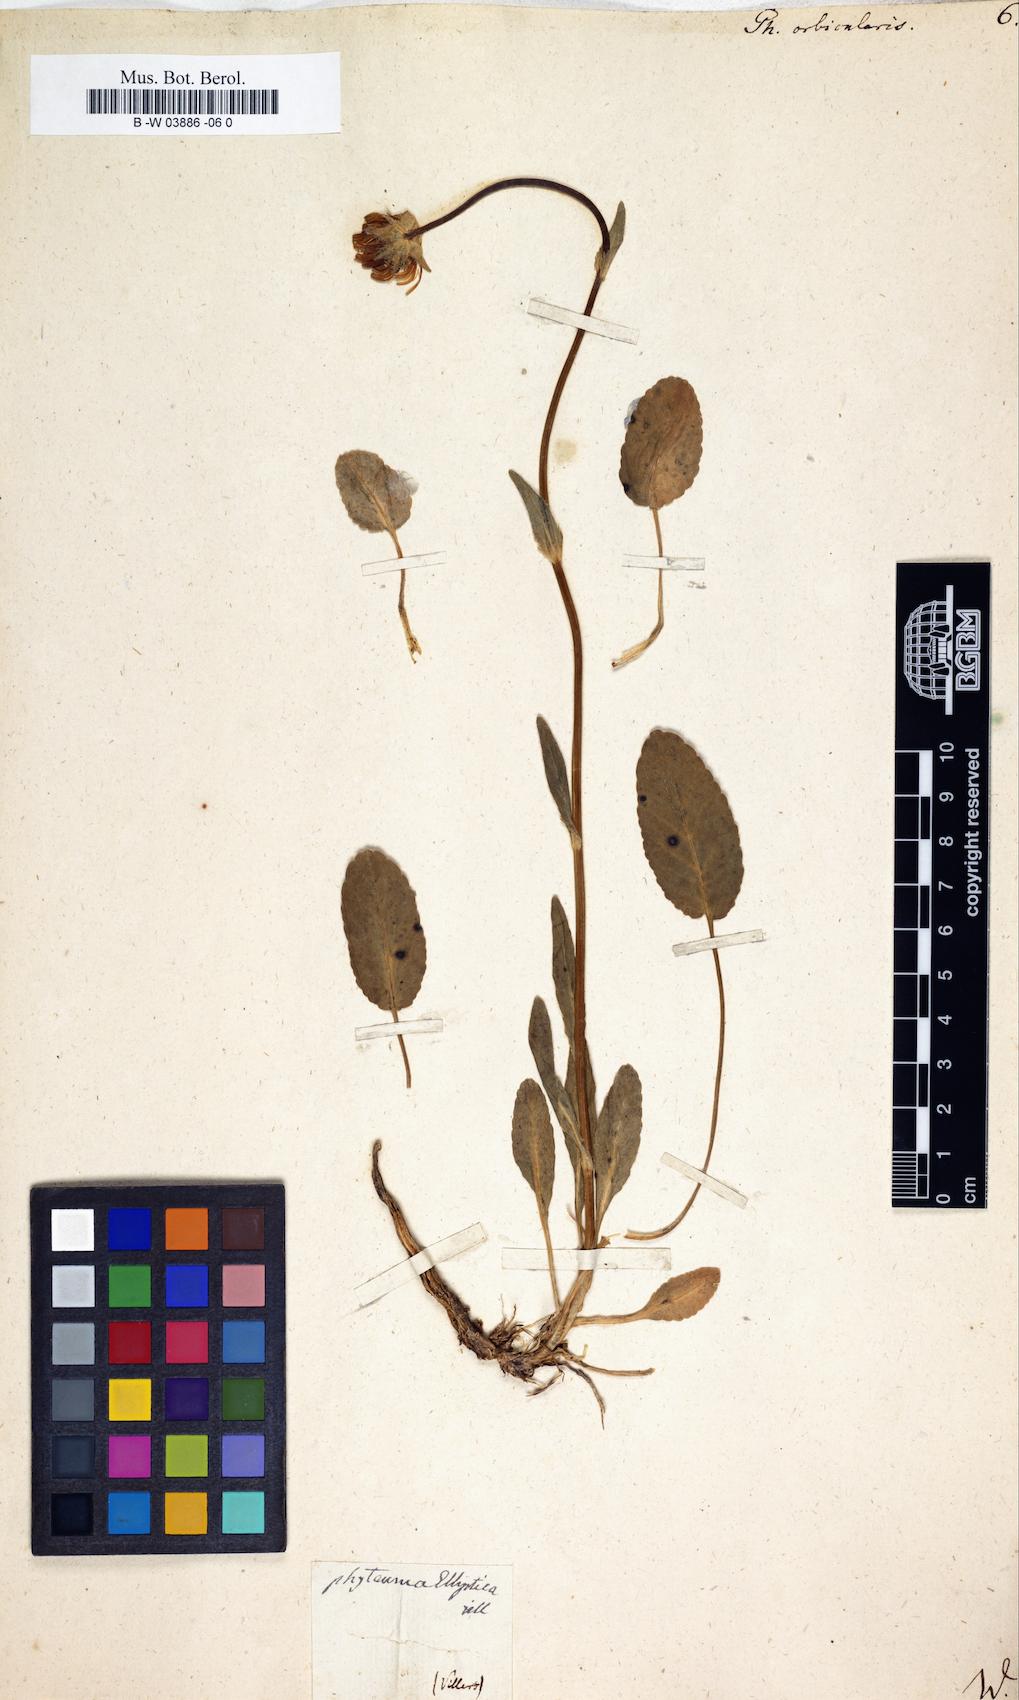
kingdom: Plantae
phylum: Tracheophyta
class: Magnoliopsida
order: Asterales
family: Campanulaceae
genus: Phyteuma
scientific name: Phyteuma orbiculare
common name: Round-headed rampion
